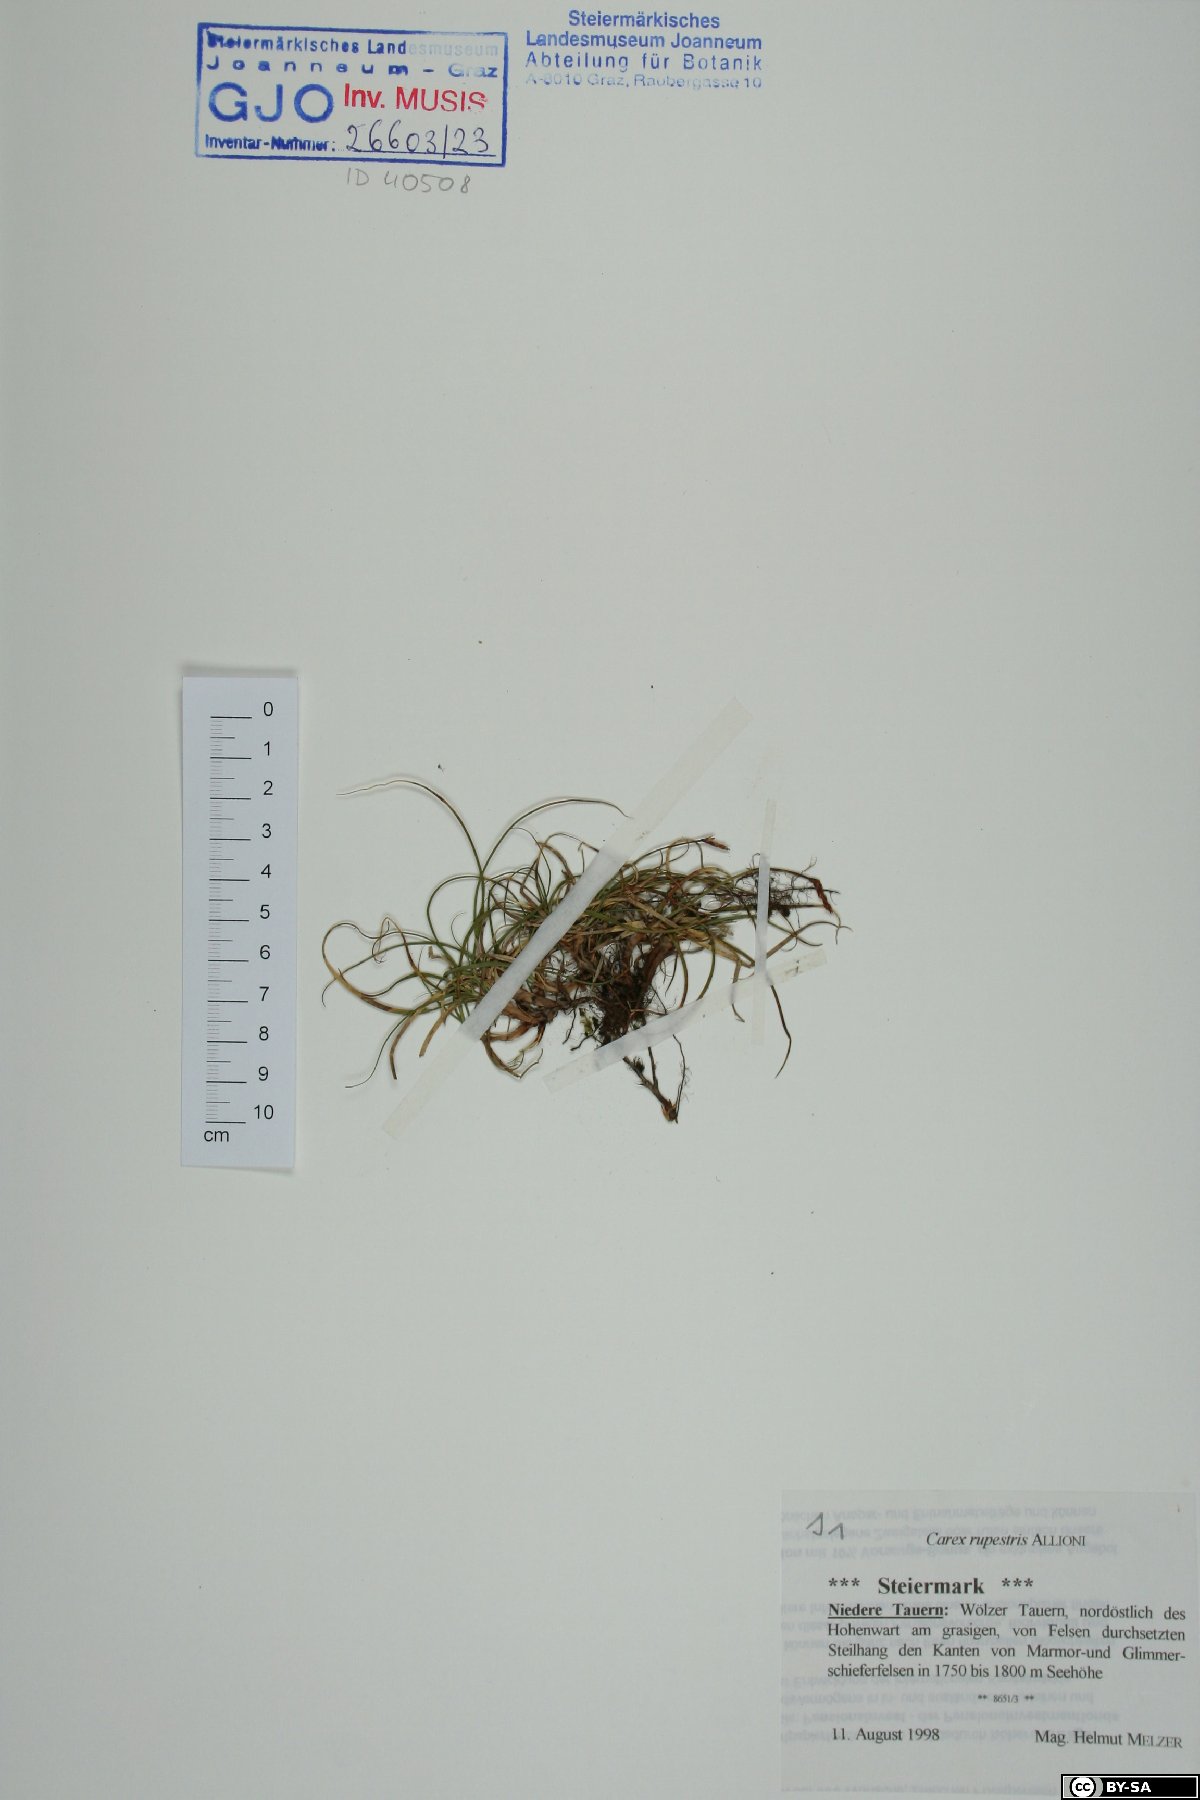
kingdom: Plantae
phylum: Tracheophyta
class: Liliopsida
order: Poales
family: Cyperaceae
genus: Carex
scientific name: Carex rupestris
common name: Rock sedge
